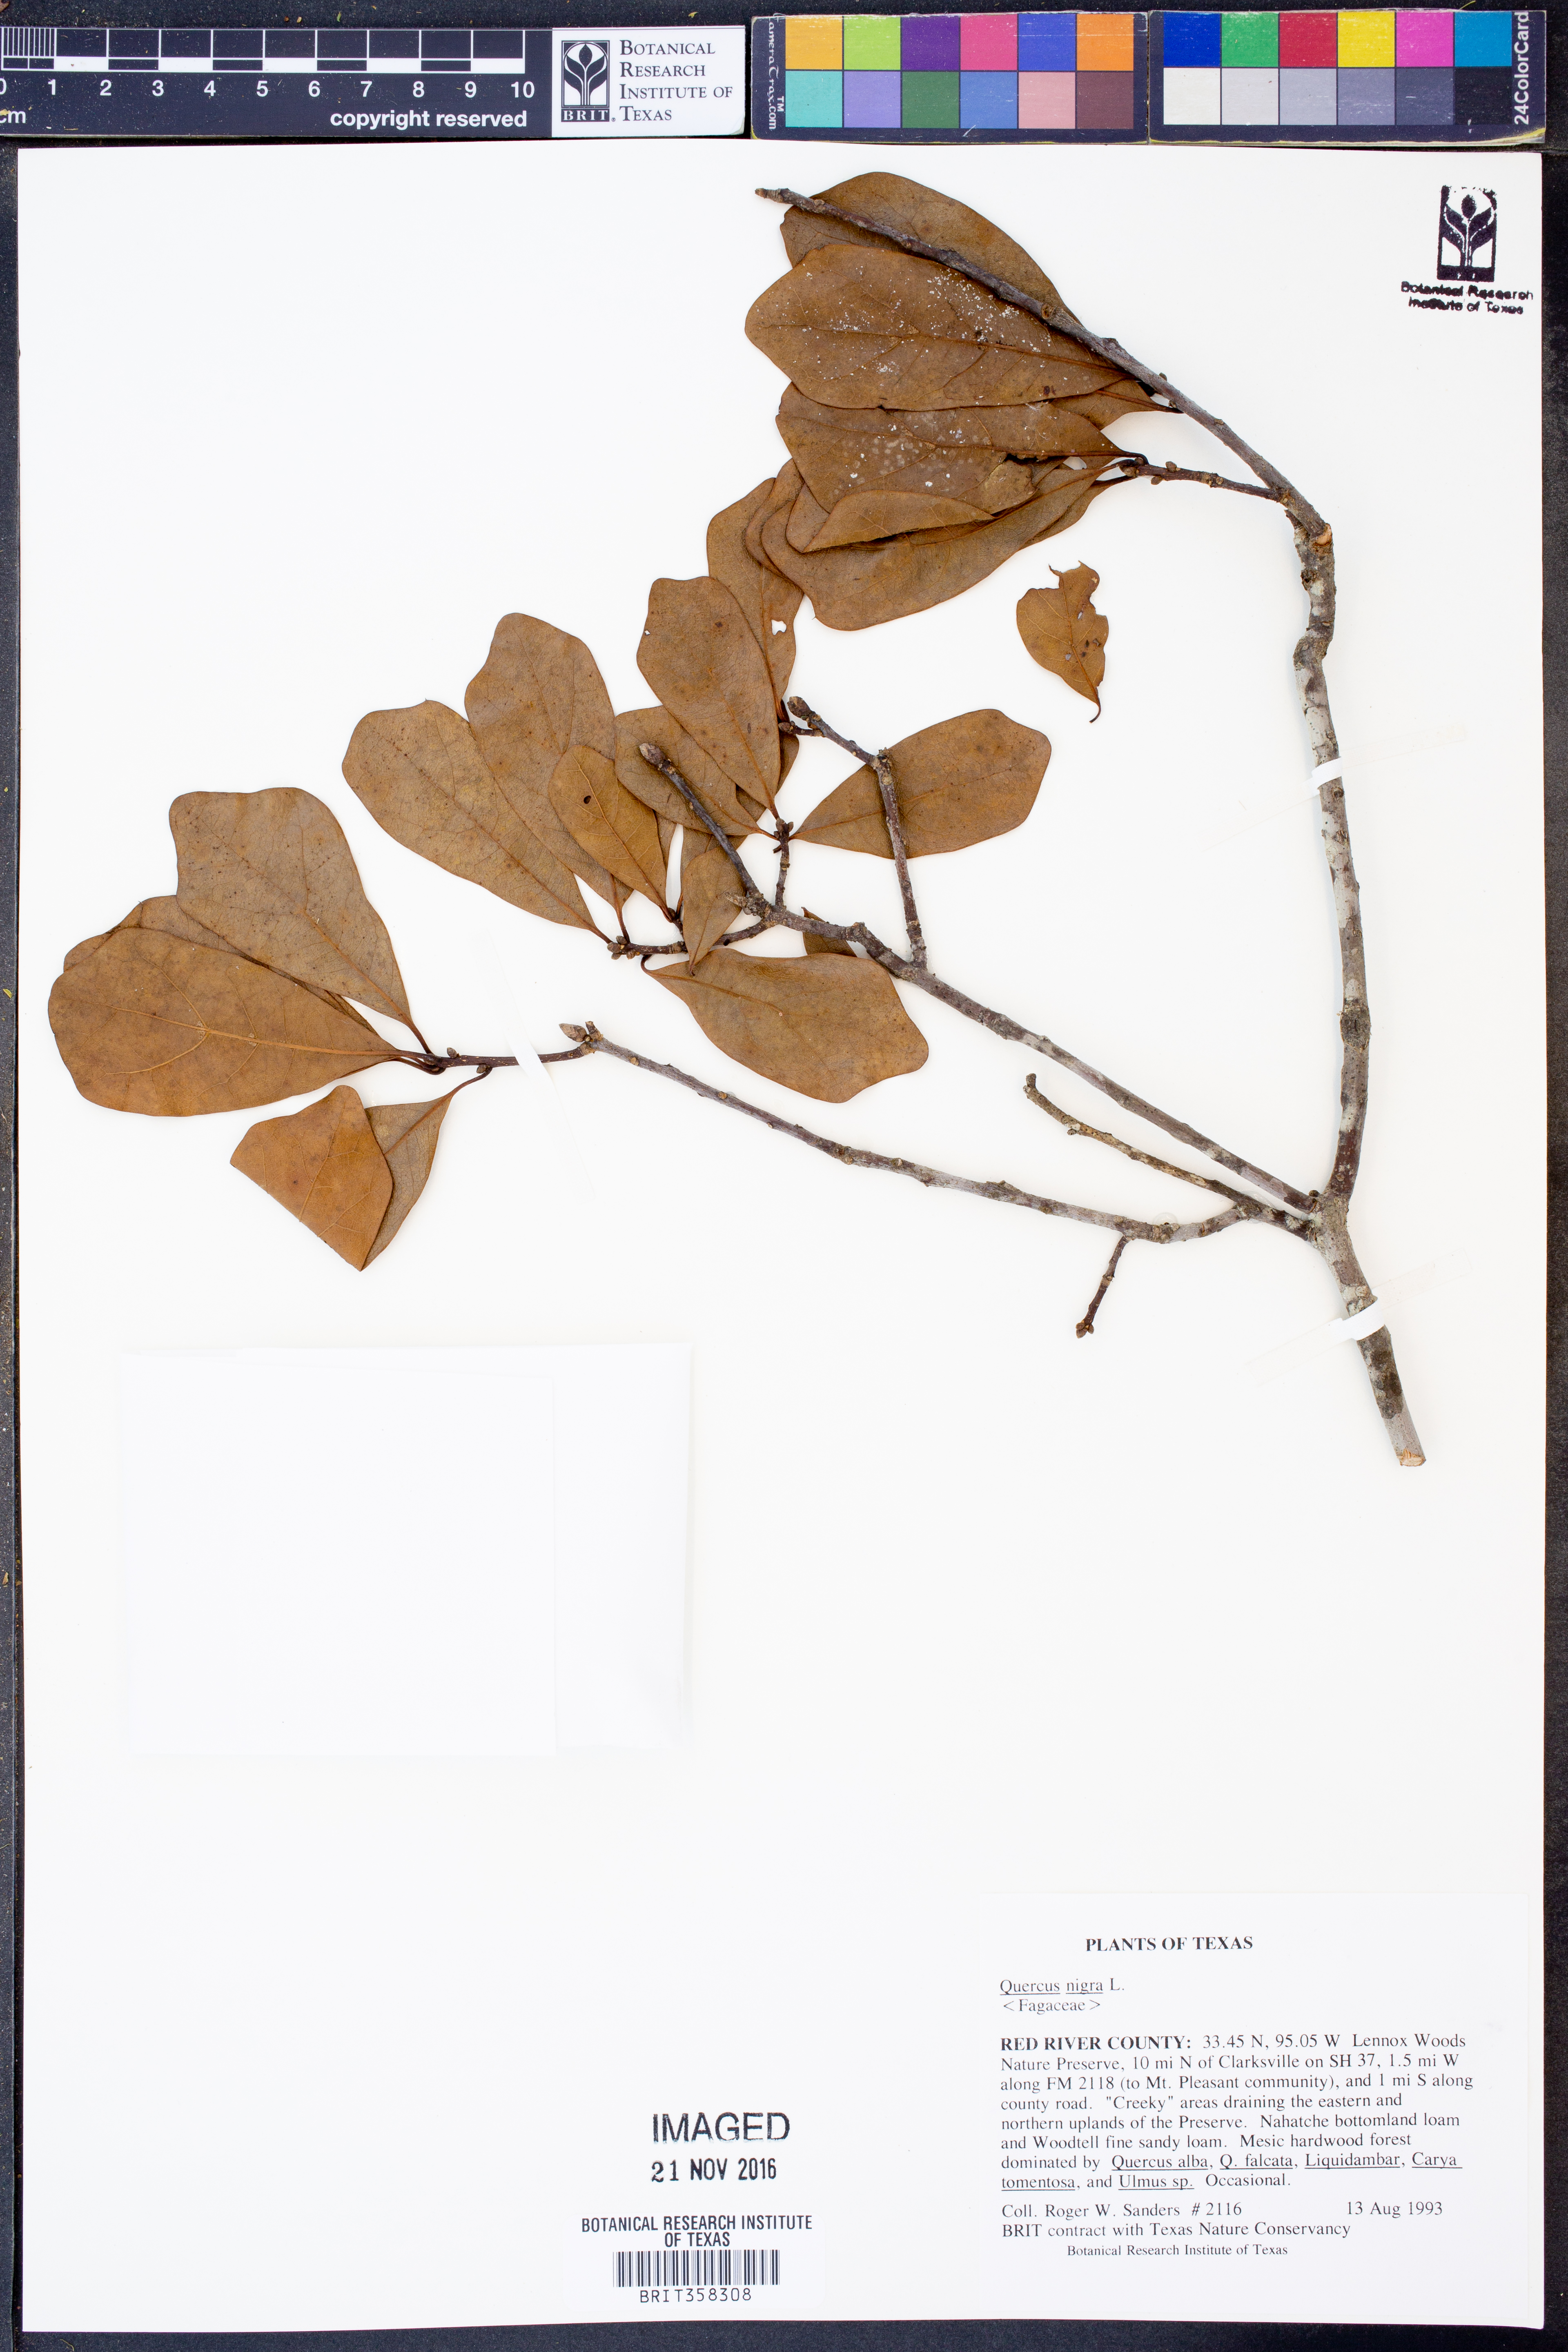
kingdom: Plantae
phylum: Tracheophyta
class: Magnoliopsida
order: Fagales
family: Fagaceae
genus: Quercus
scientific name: Quercus nigra
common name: Water oak
